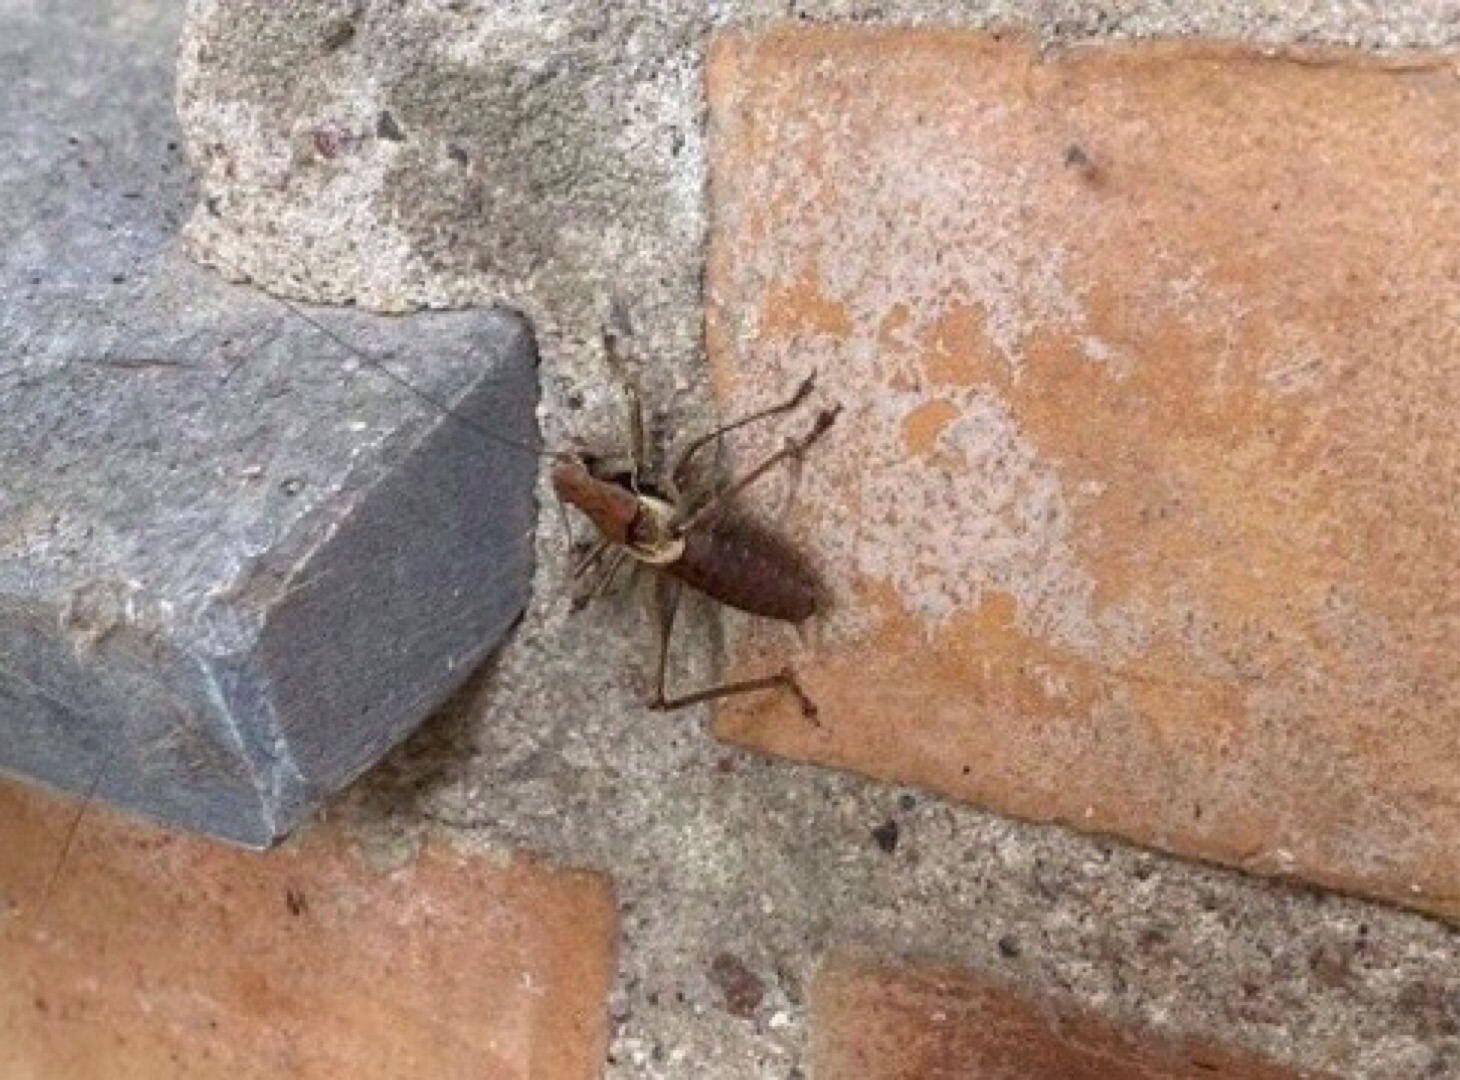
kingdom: Animalia
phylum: Arthropoda
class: Insecta
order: Orthoptera
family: Tettigoniidae
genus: Pholidoptera
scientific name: Pholidoptera griseoaptera
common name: Buskgræshoppe
